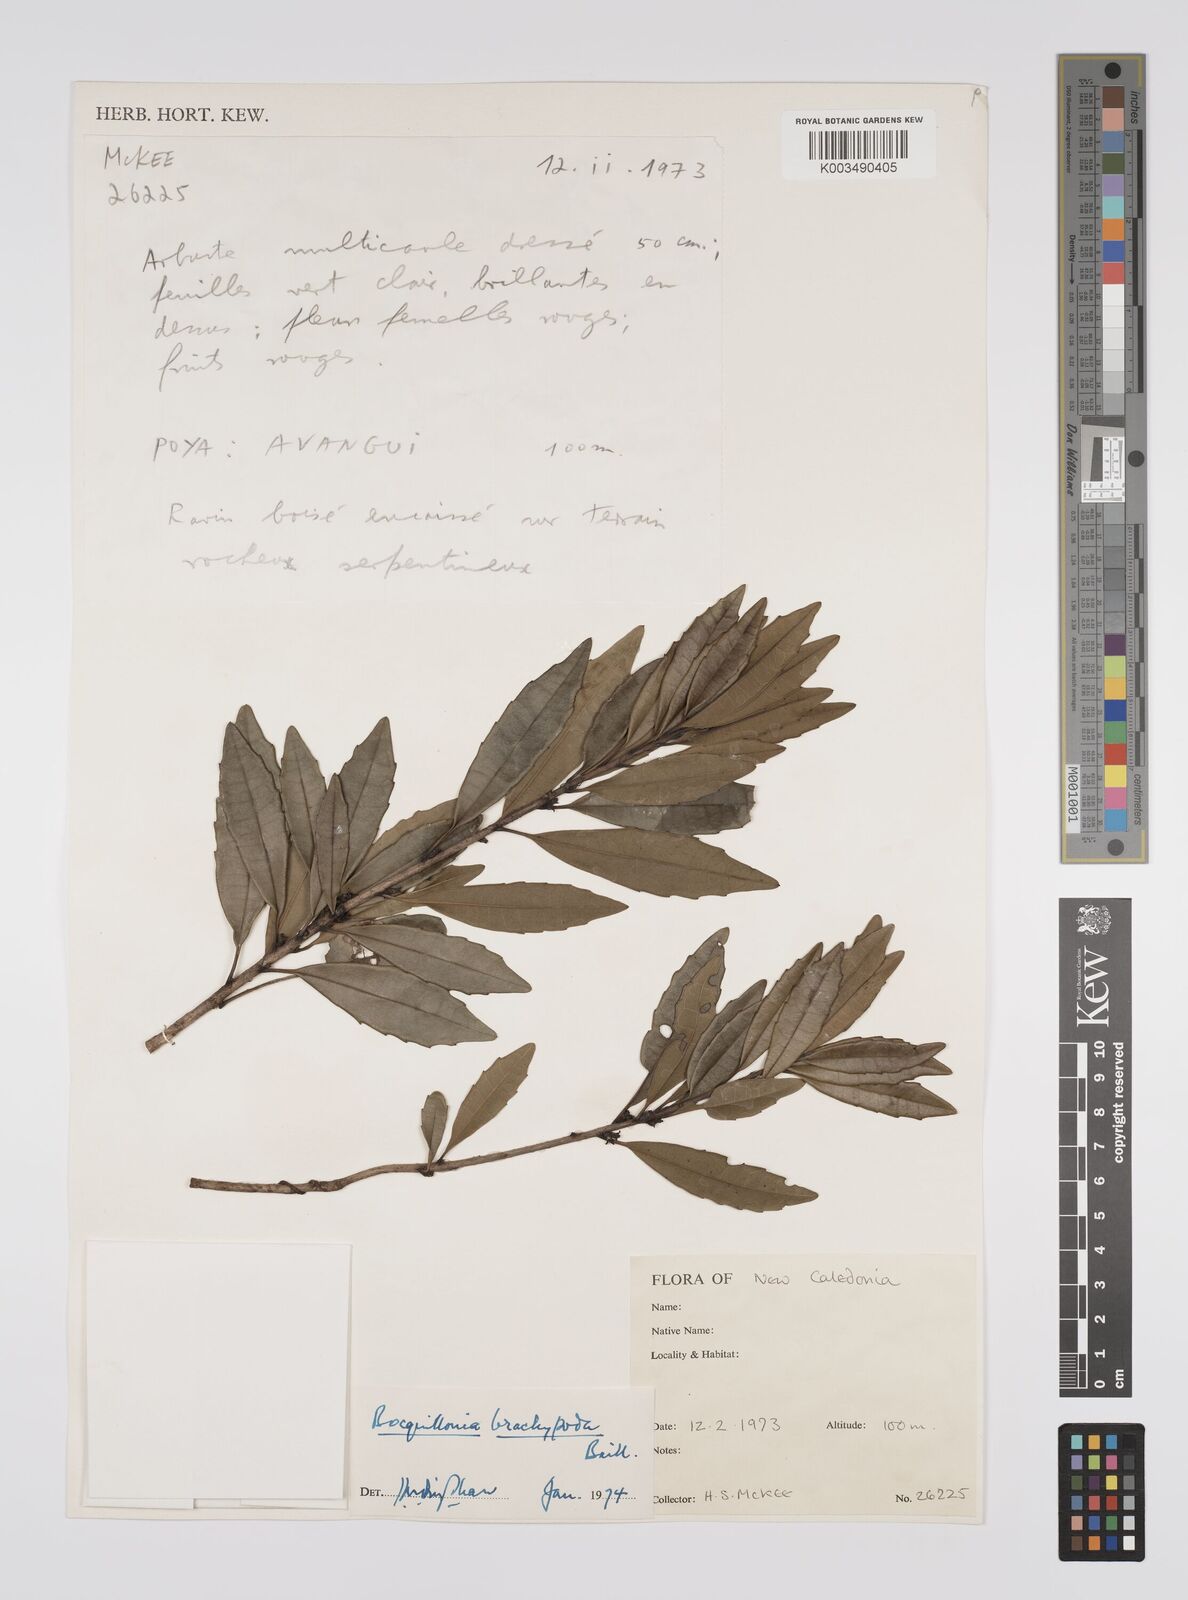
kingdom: Plantae
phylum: Tracheophyta
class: Magnoliopsida
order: Malpighiales
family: Euphorbiaceae
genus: Bocquillonia
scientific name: Bocquillonia brachypoda
